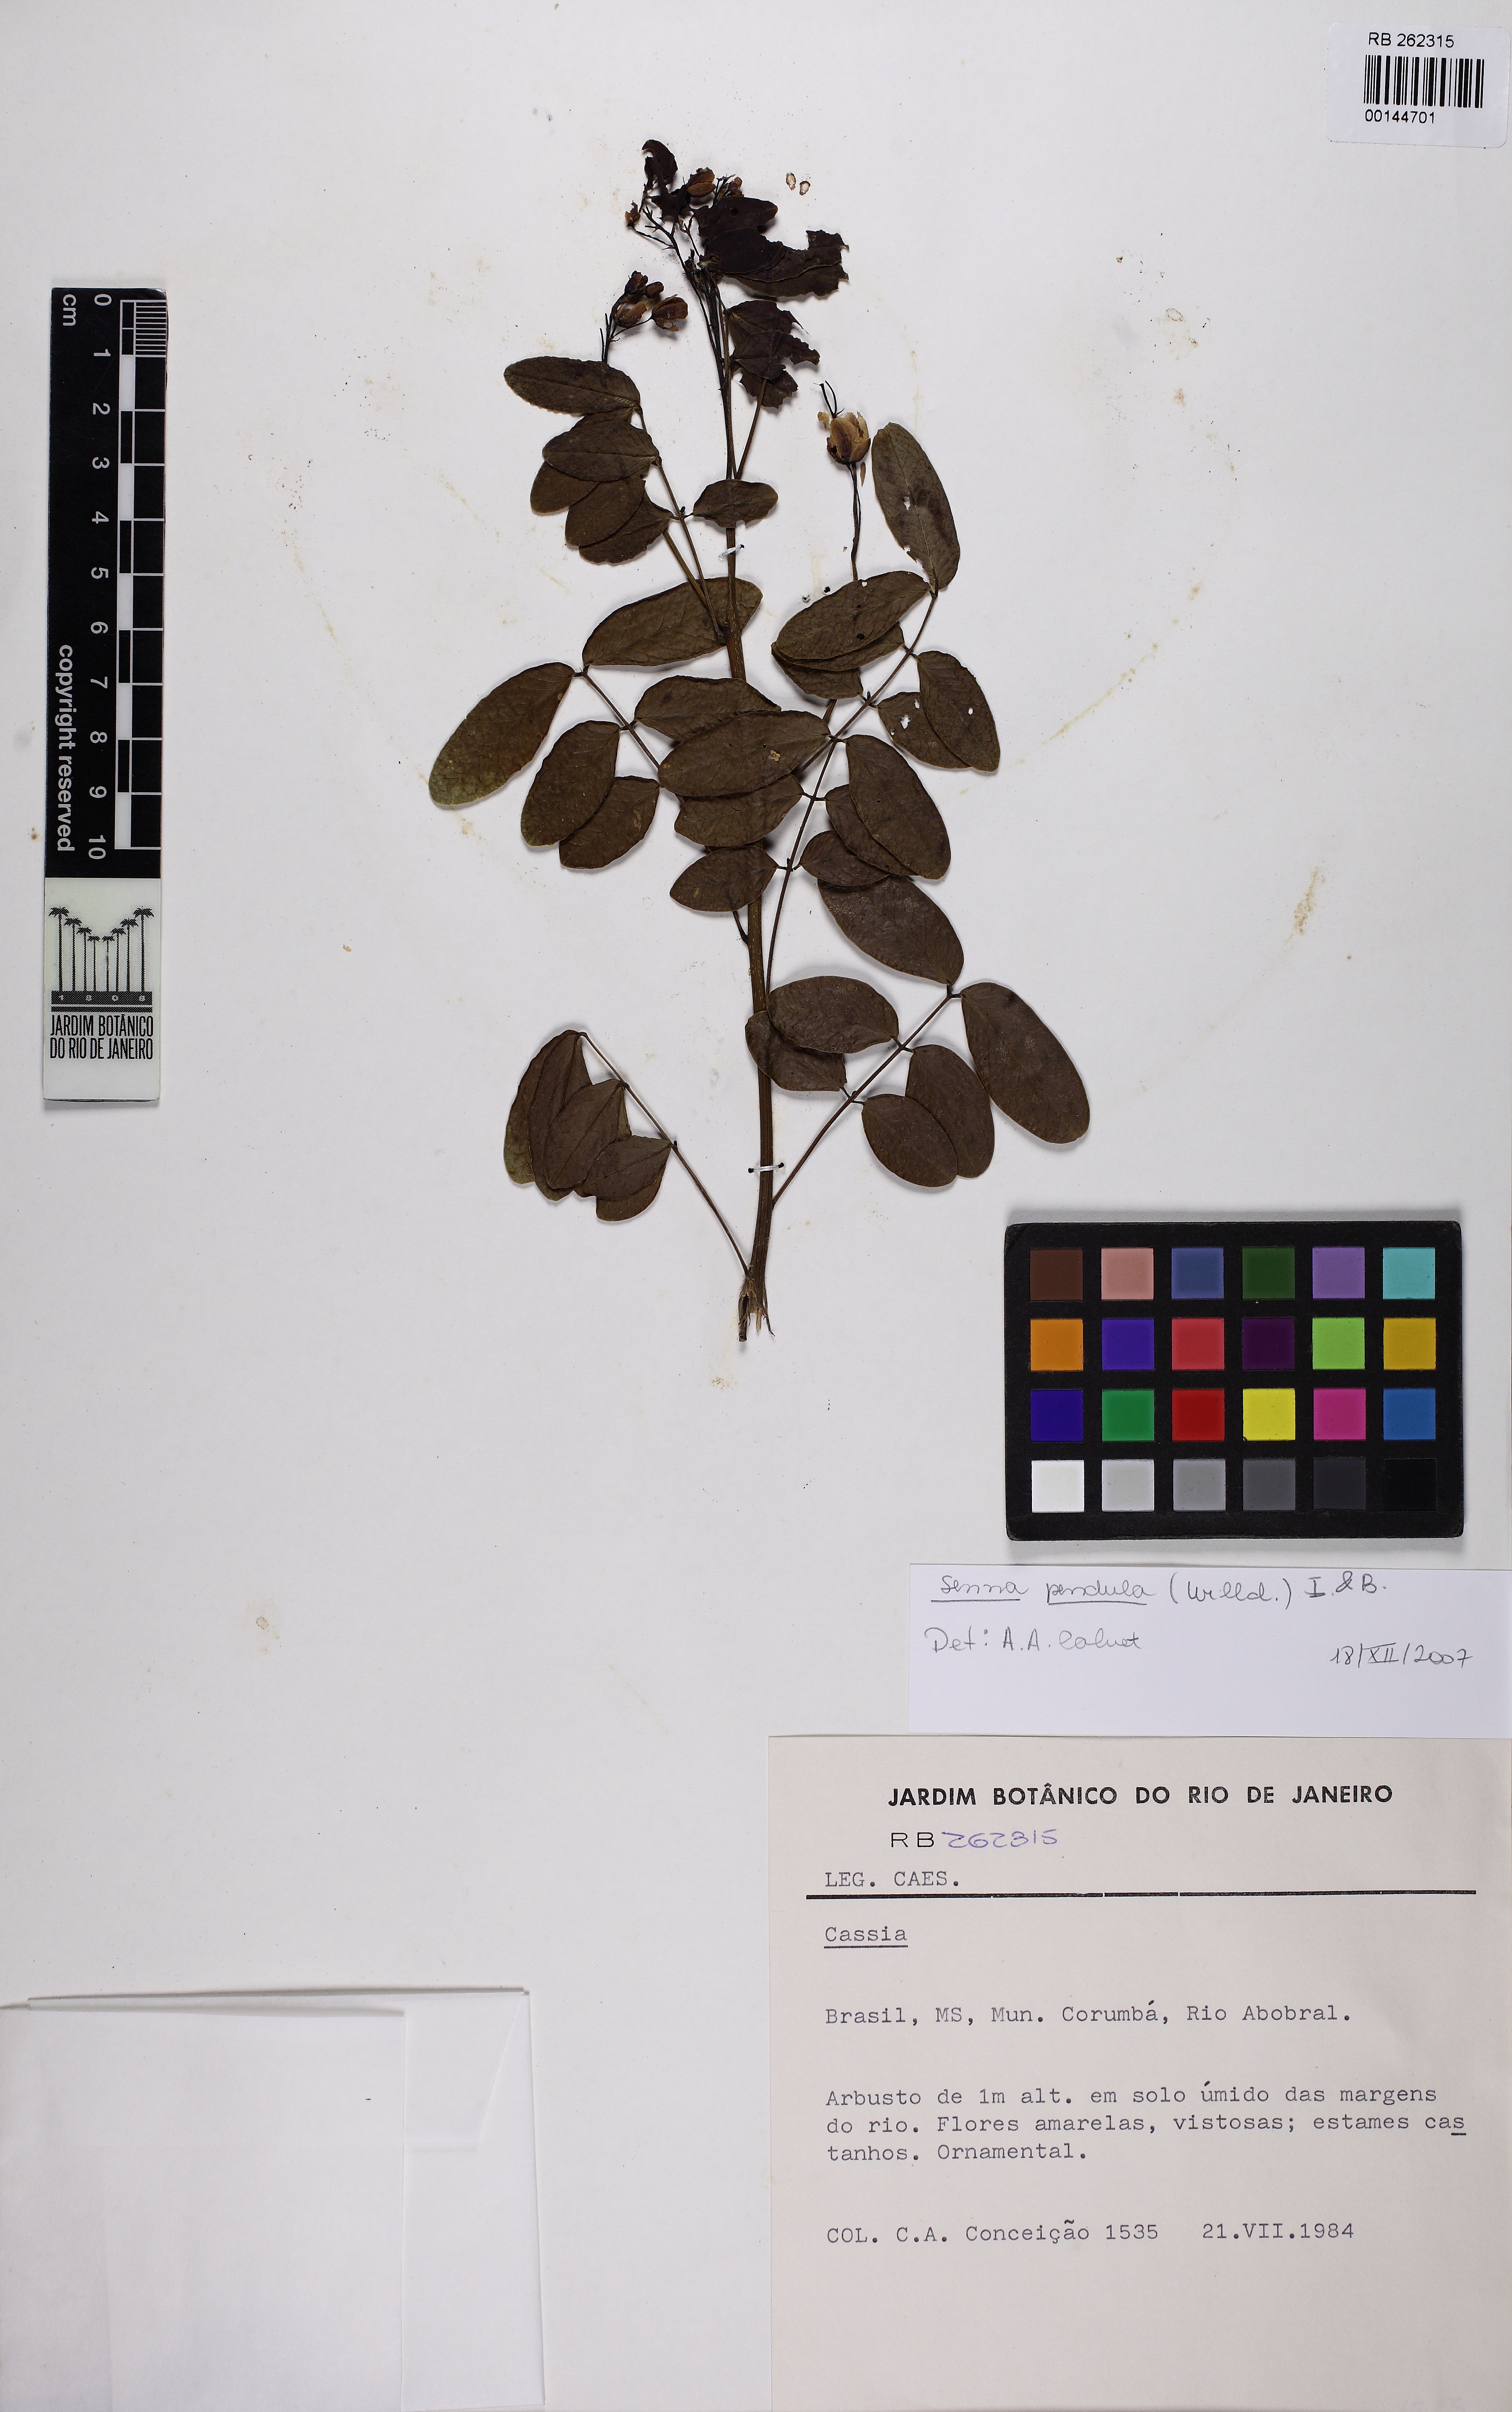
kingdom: Plantae
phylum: Tracheophyta
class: Magnoliopsida
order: Fabales
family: Fabaceae
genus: Senna
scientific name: Senna pendula
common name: Easter cassia
